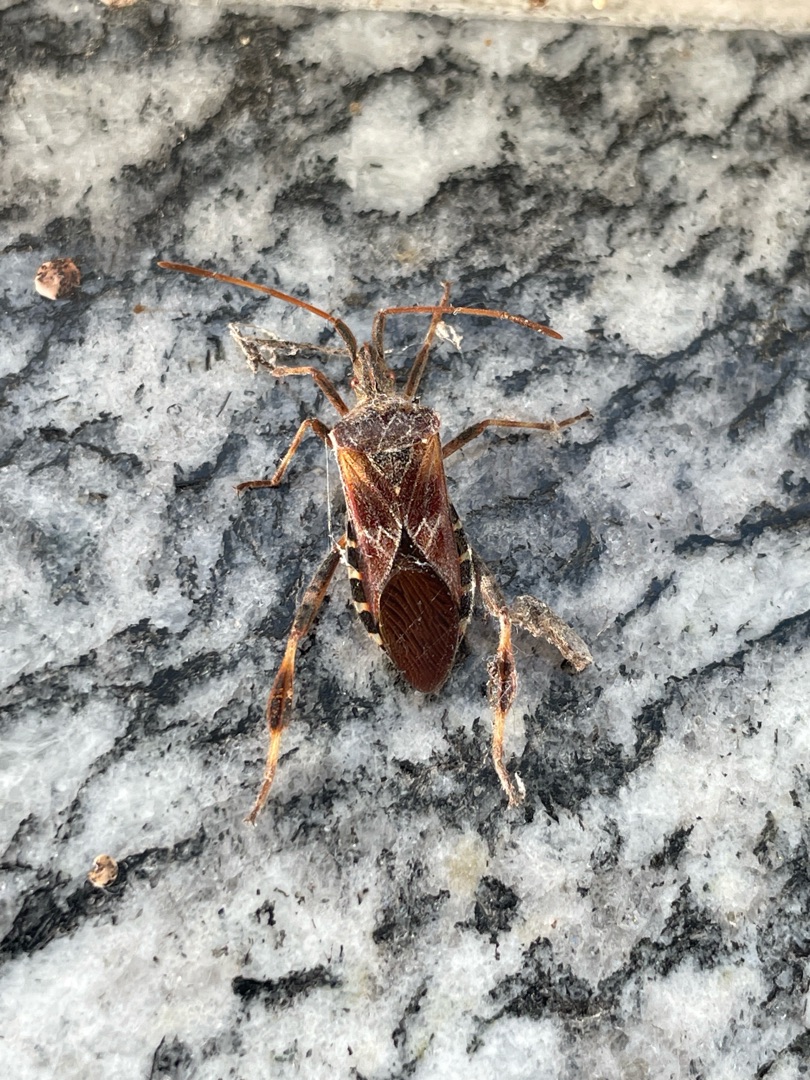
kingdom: Animalia
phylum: Arthropoda
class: Insecta
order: Hemiptera
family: Coreidae
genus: Leptoglossus
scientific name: Leptoglossus occidentalis
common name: Amerikansk fyrretæge
